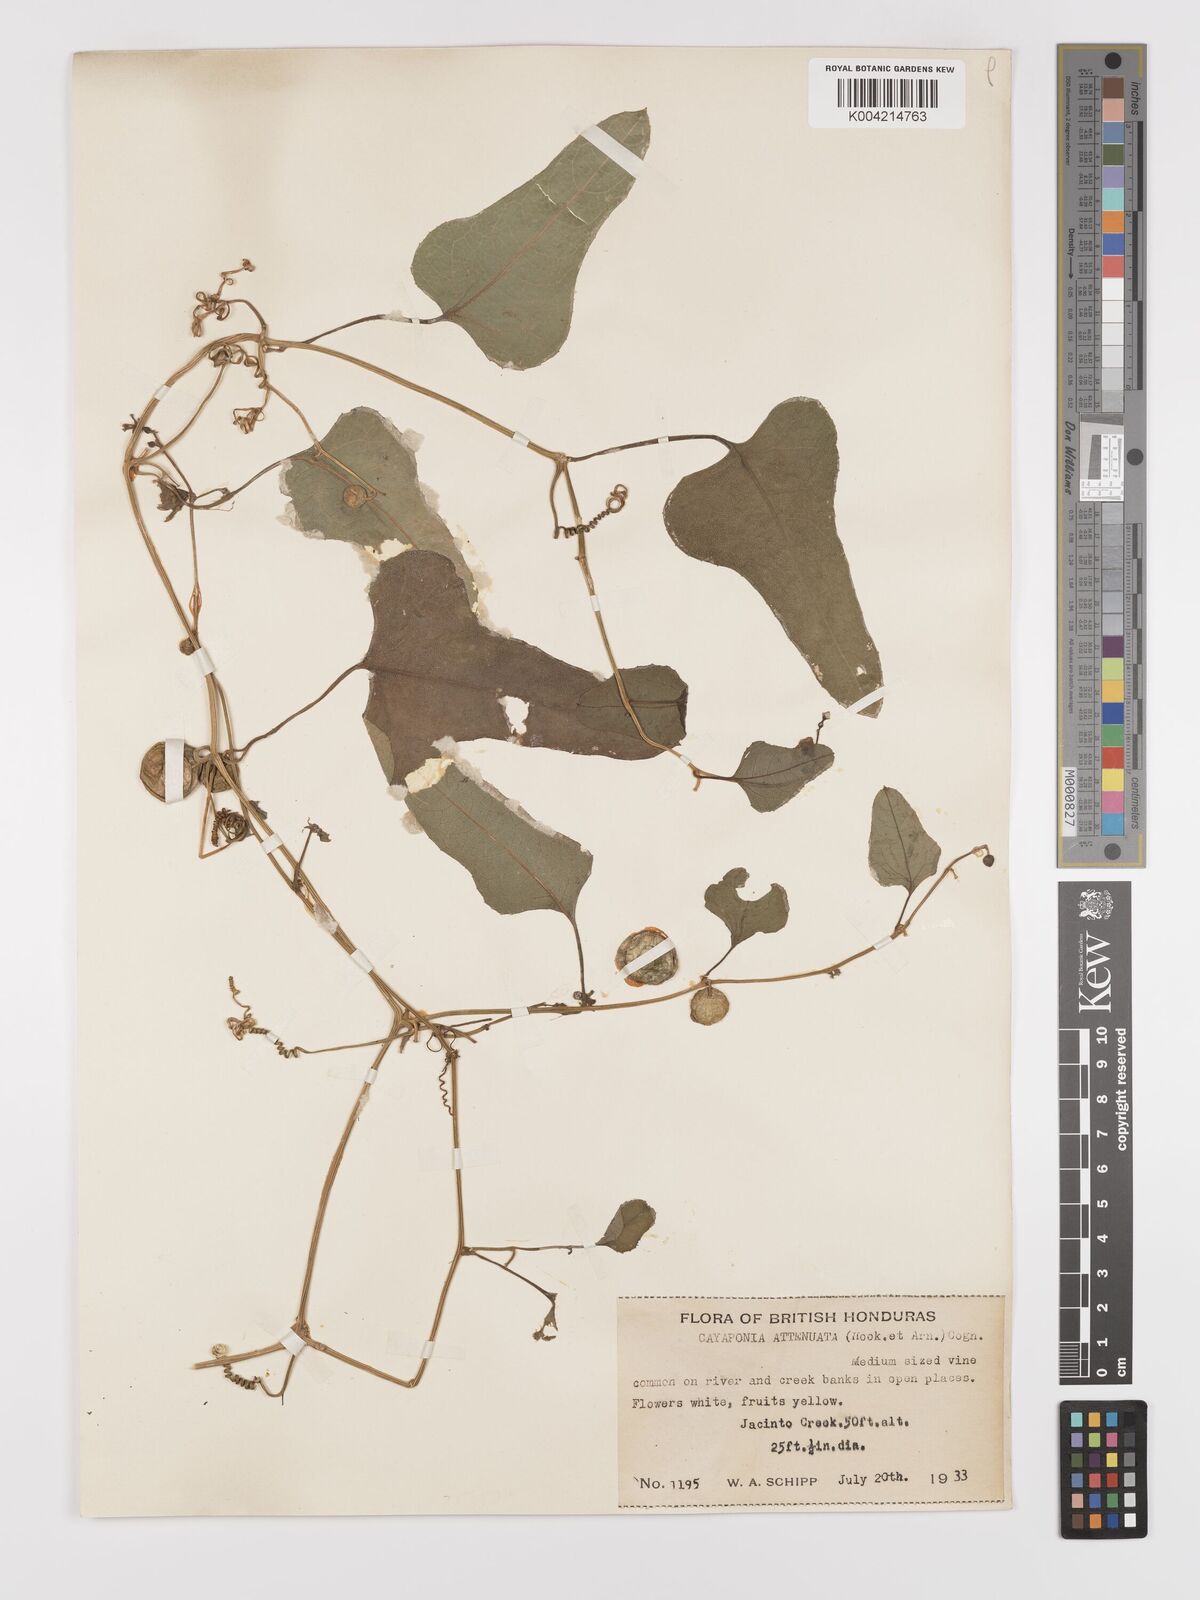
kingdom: Plantae
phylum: Tracheophyta
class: Magnoliopsida
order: Cucurbitales
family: Cucurbitaceae
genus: Cayaponia
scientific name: Cayaponia attenuata
